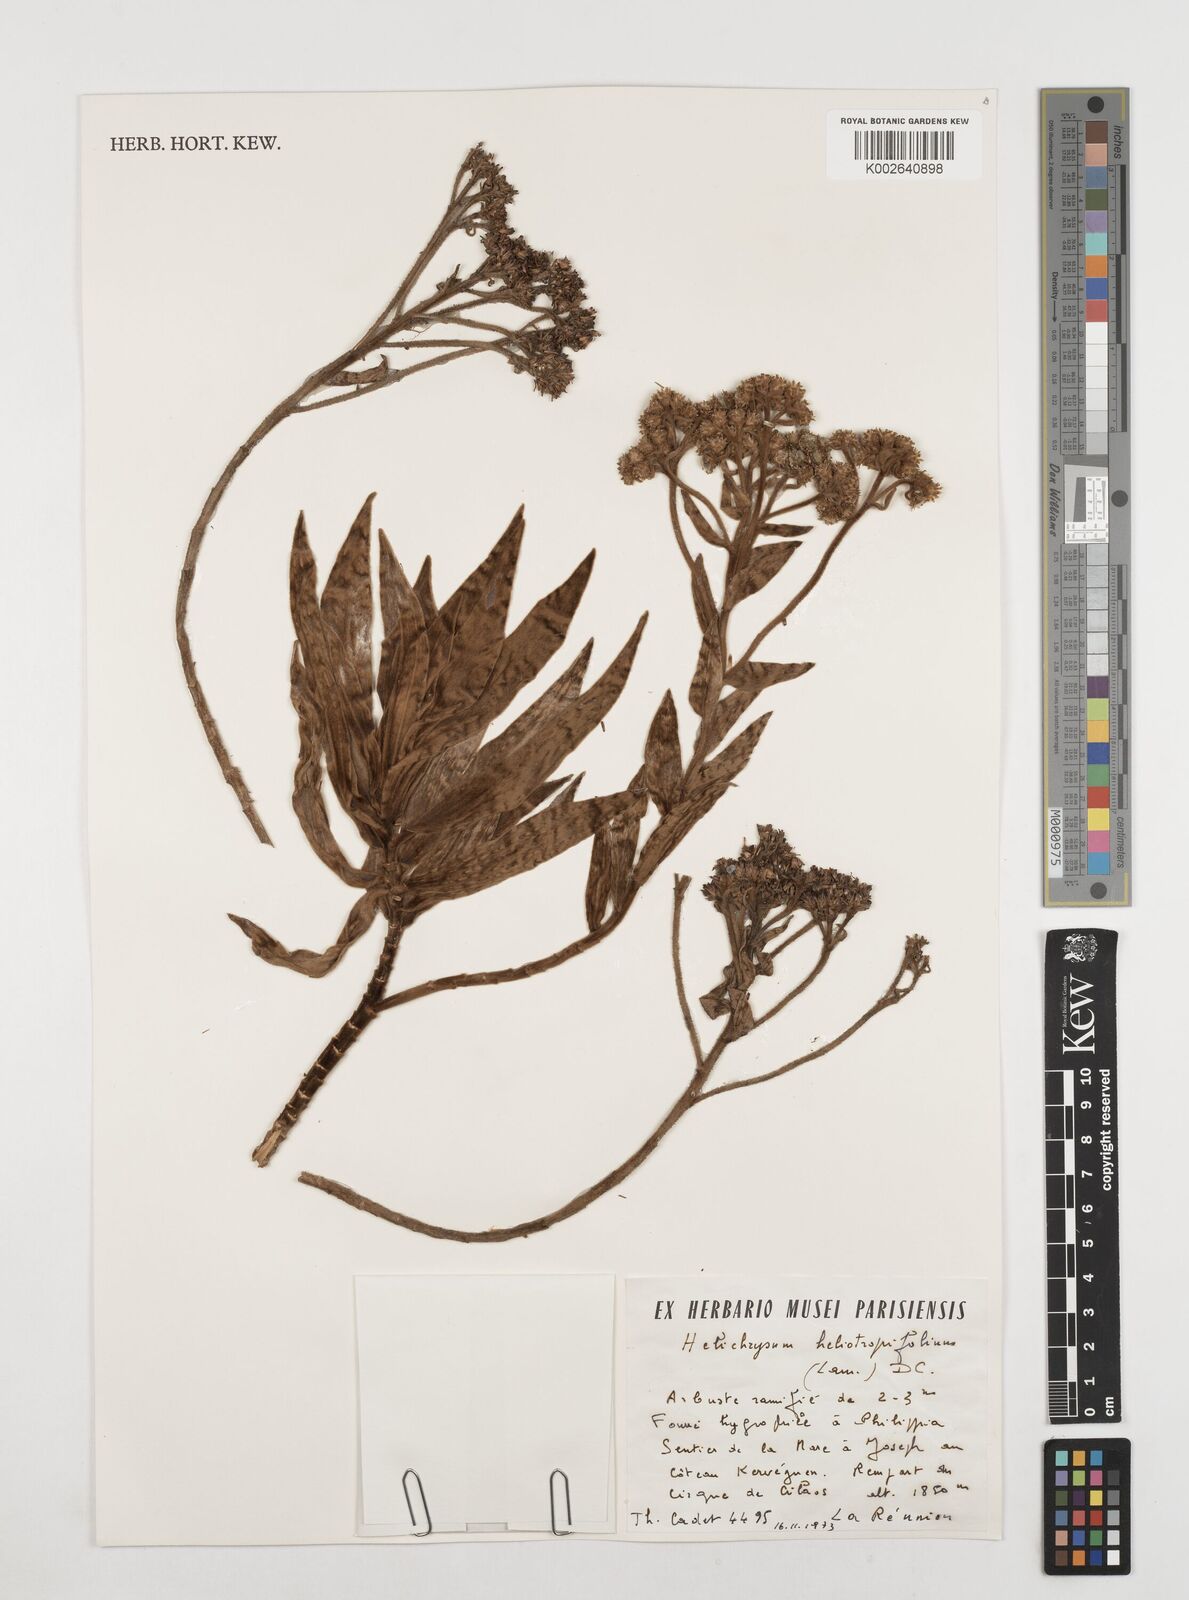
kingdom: Plantae
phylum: Tracheophyta
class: Magnoliopsida
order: Asterales
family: Asteraceae
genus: Helichrysum
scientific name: Helichrysum heliotropifolium
